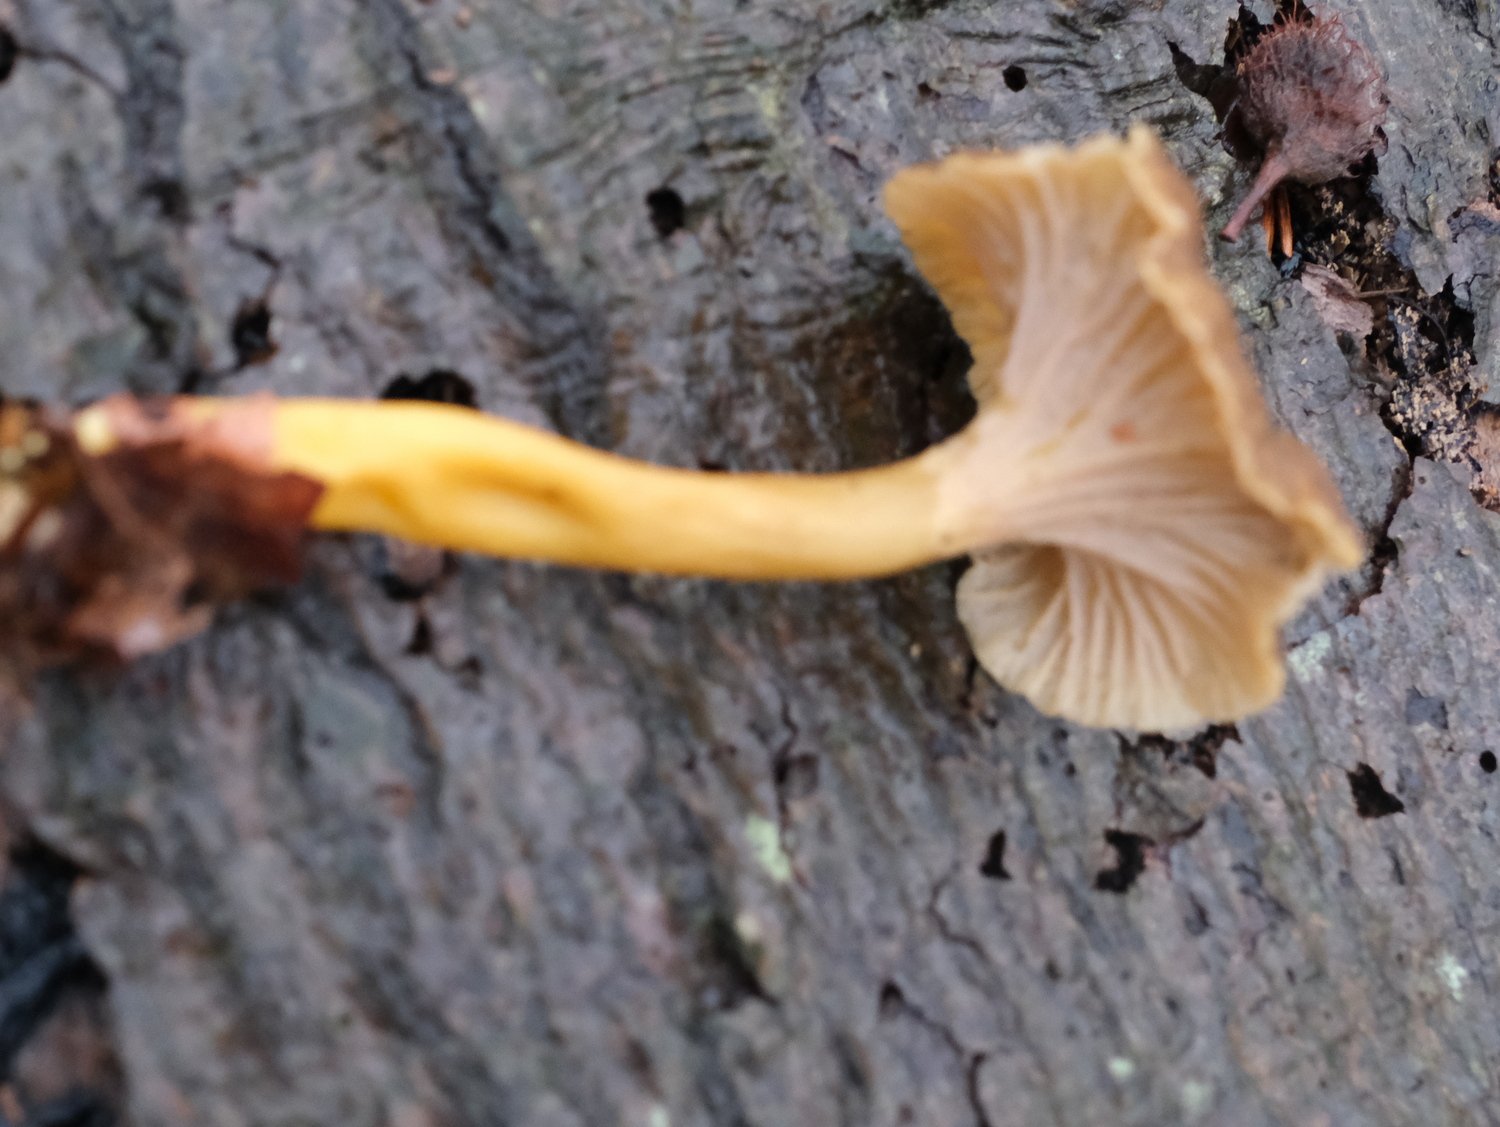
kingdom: Fungi
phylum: Basidiomycota
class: Agaricomycetes
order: Cantharellales
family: Hydnaceae
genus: Craterellus
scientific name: Craterellus tubaeformis
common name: tragt-kantarel
